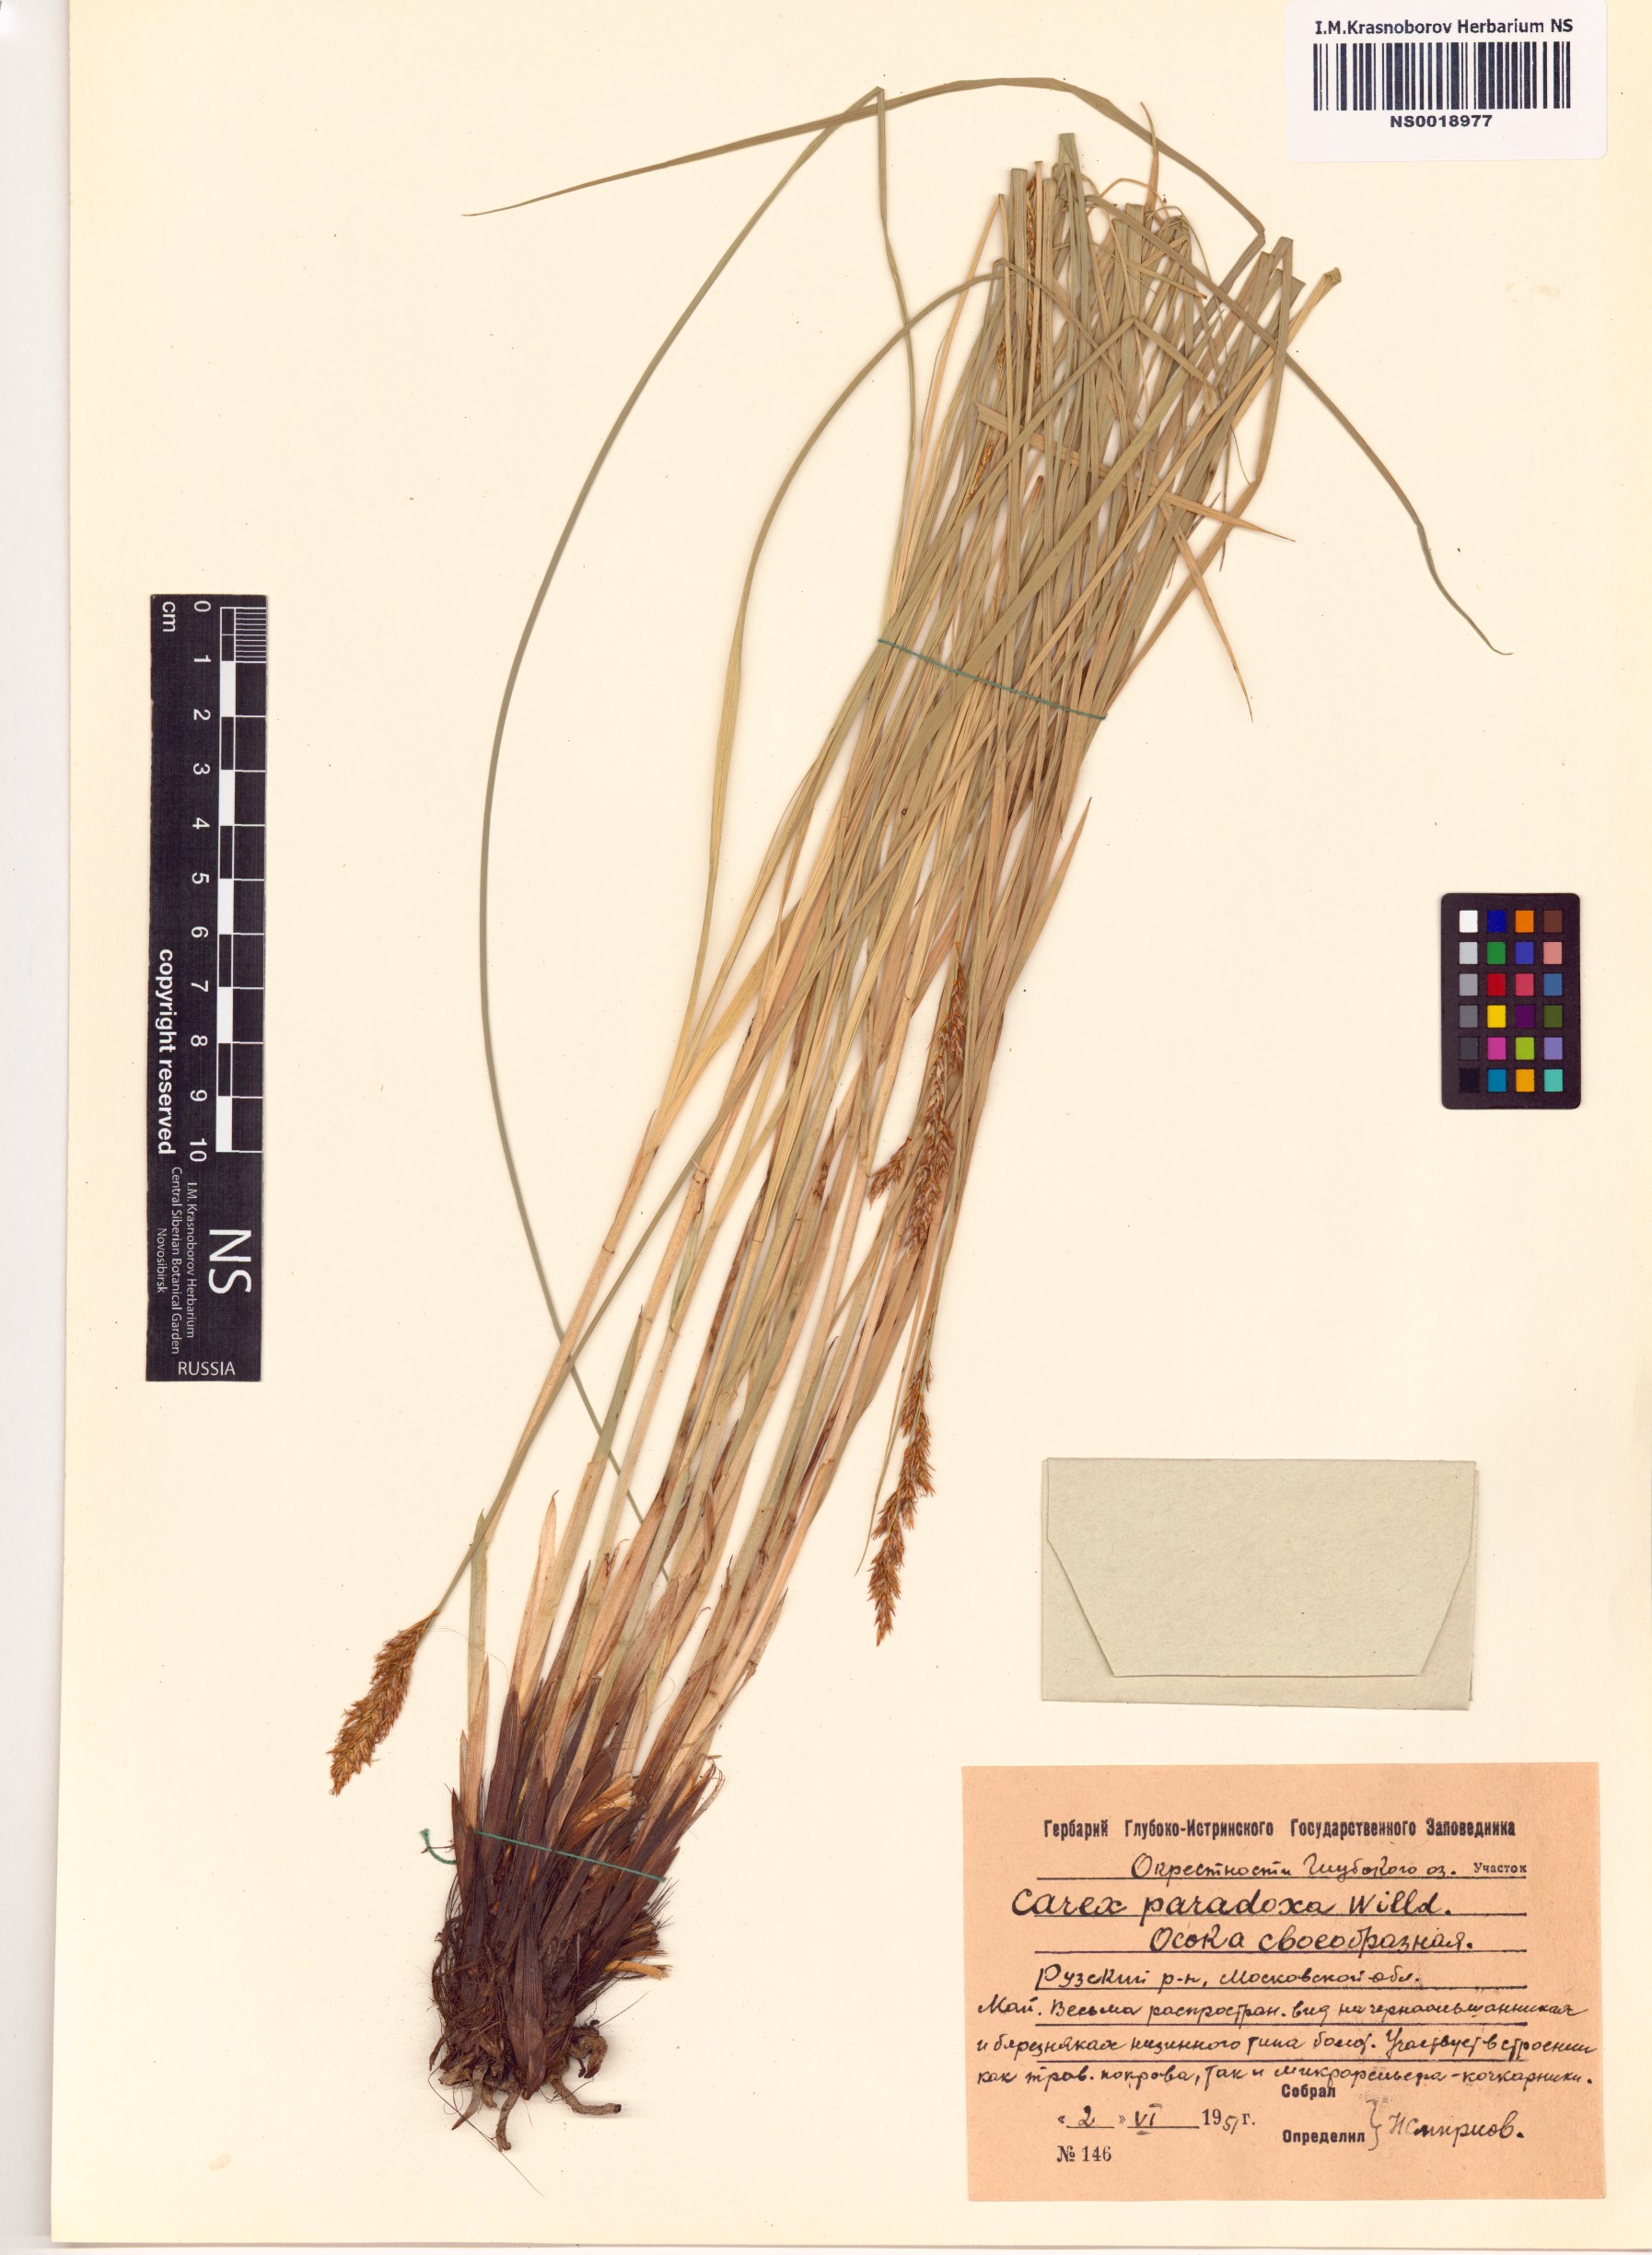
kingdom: Plantae
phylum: Tracheophyta
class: Liliopsida
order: Poales
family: Cyperaceae
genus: Carex
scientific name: Carex appropinquata
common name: Fibrous tussock-sedge
